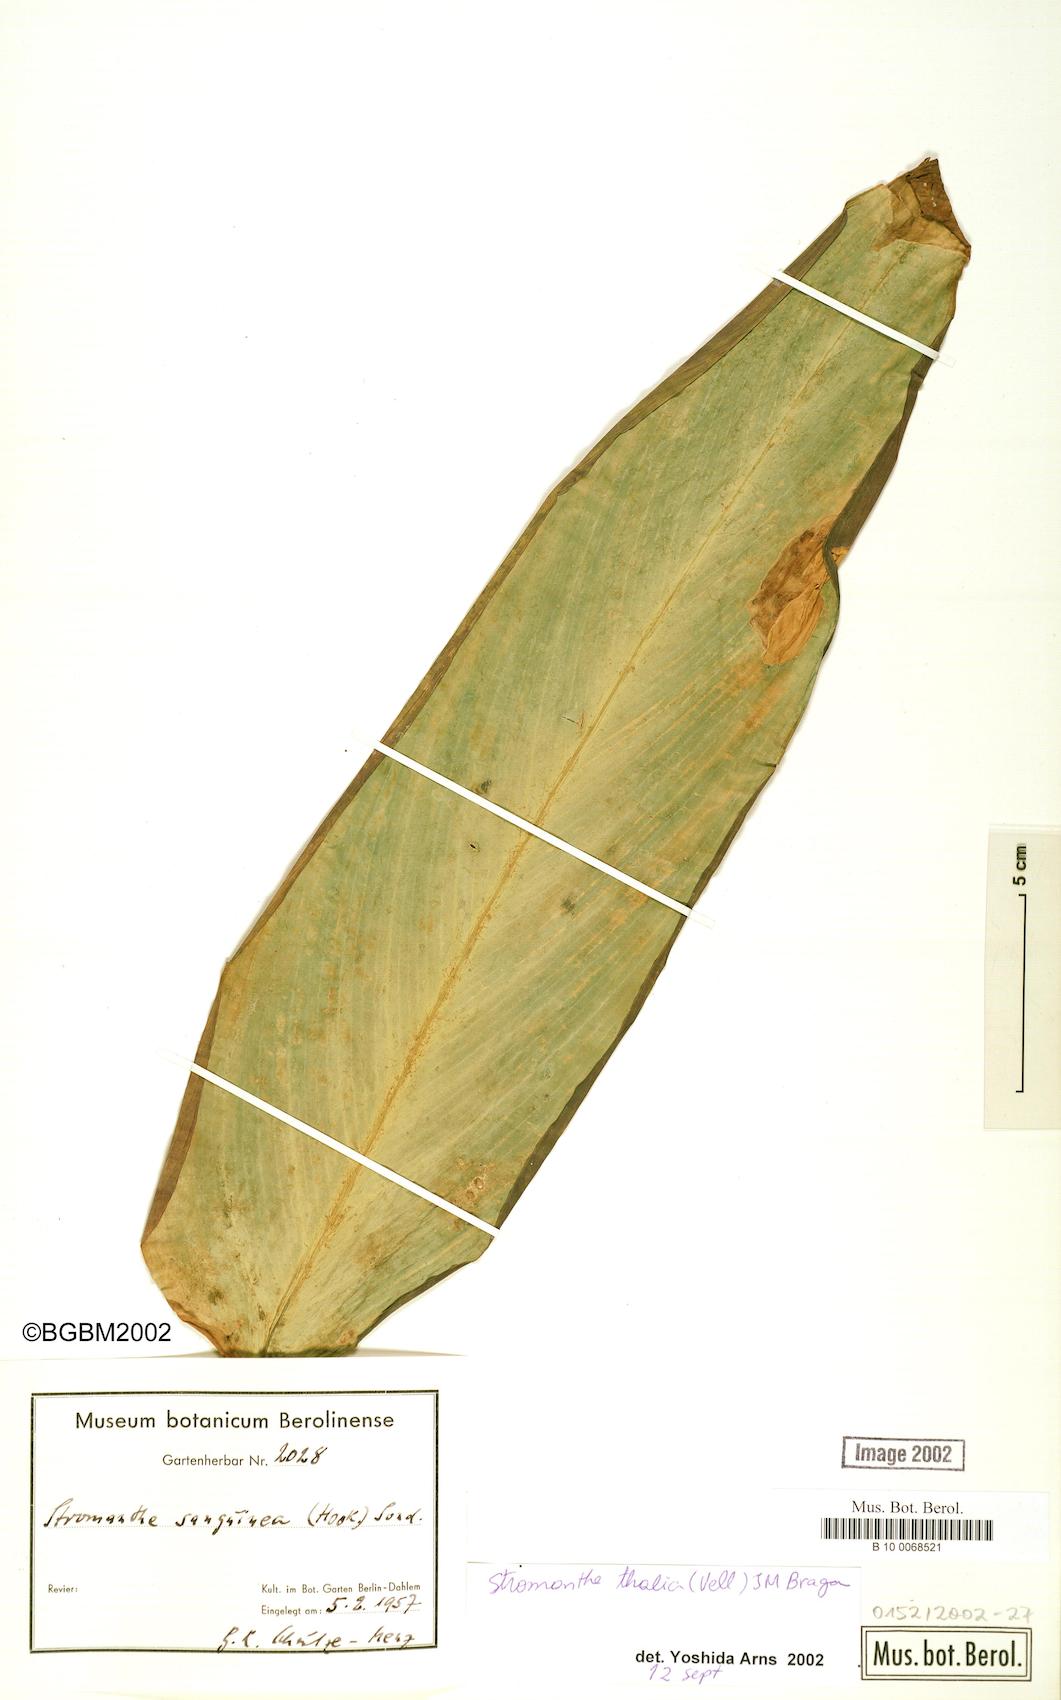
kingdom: Plantae
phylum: Tracheophyta
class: Liliopsida
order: Zingiberales
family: Marantaceae
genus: Stromanthe
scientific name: Stromanthe thalia
